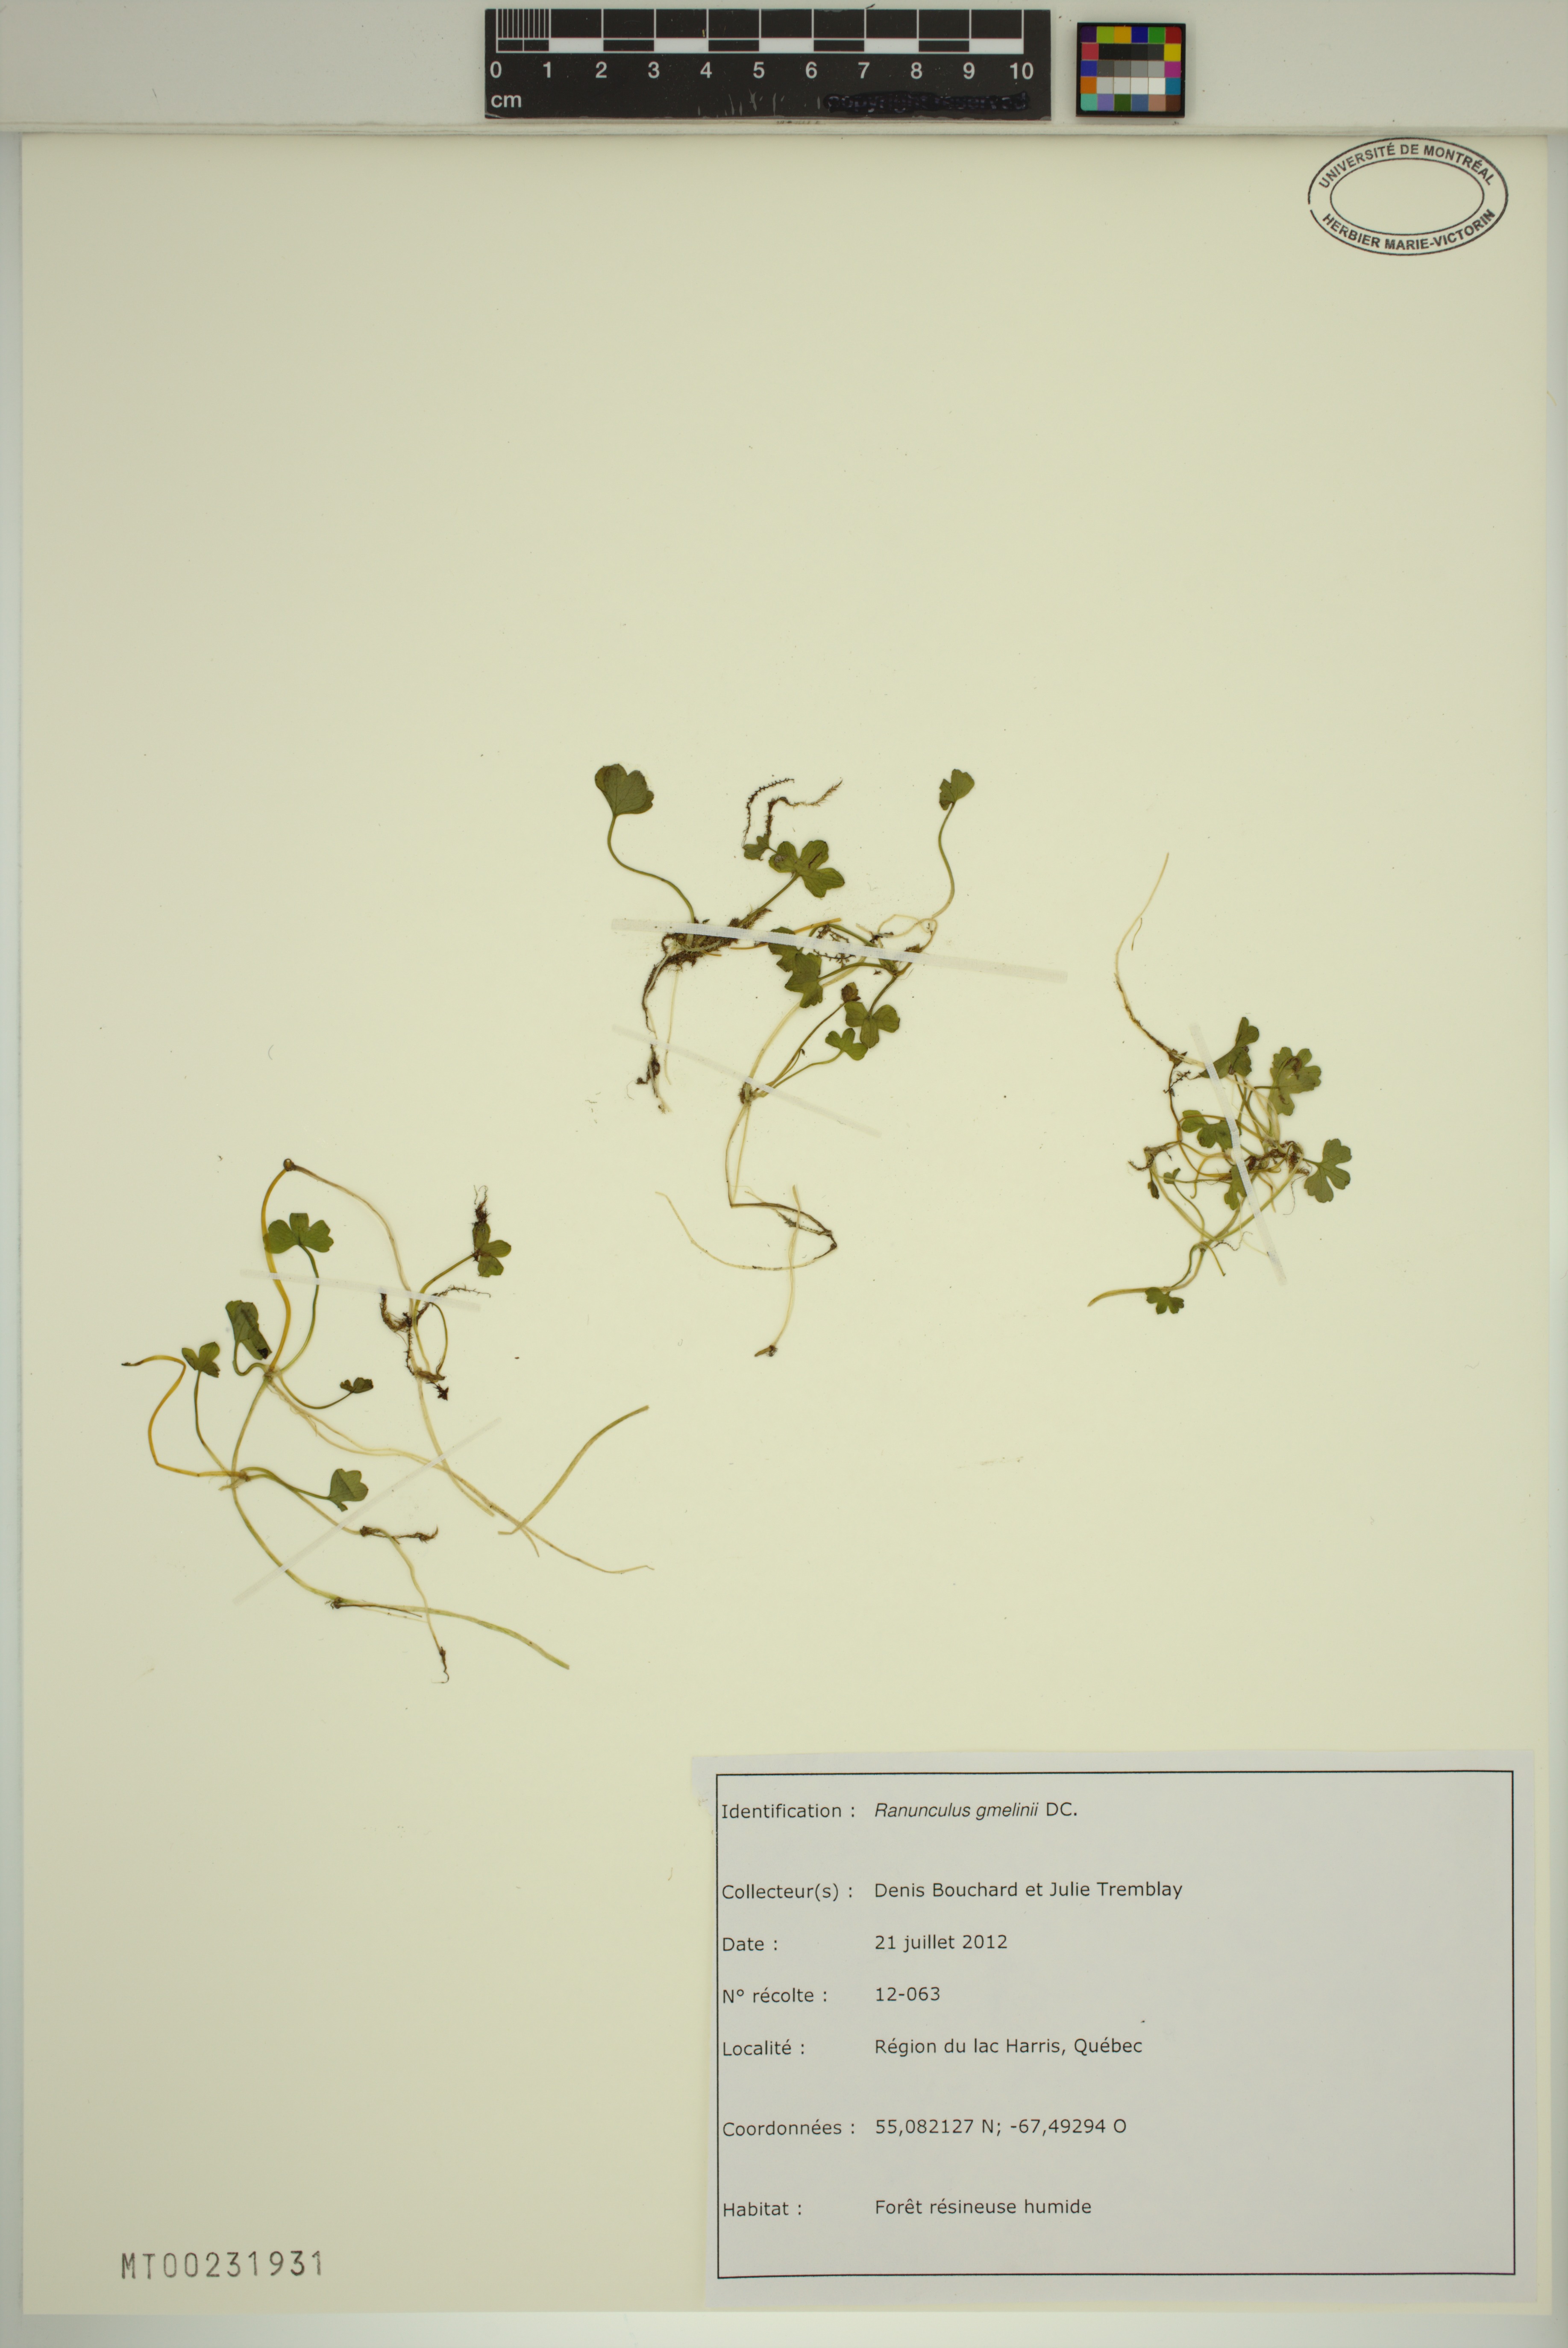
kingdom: Plantae
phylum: Tracheophyta
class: Magnoliopsida
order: Ranunculales
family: Ranunculaceae
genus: Ranunculus
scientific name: Ranunculus gmelinii
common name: Gmelin's buttercup
